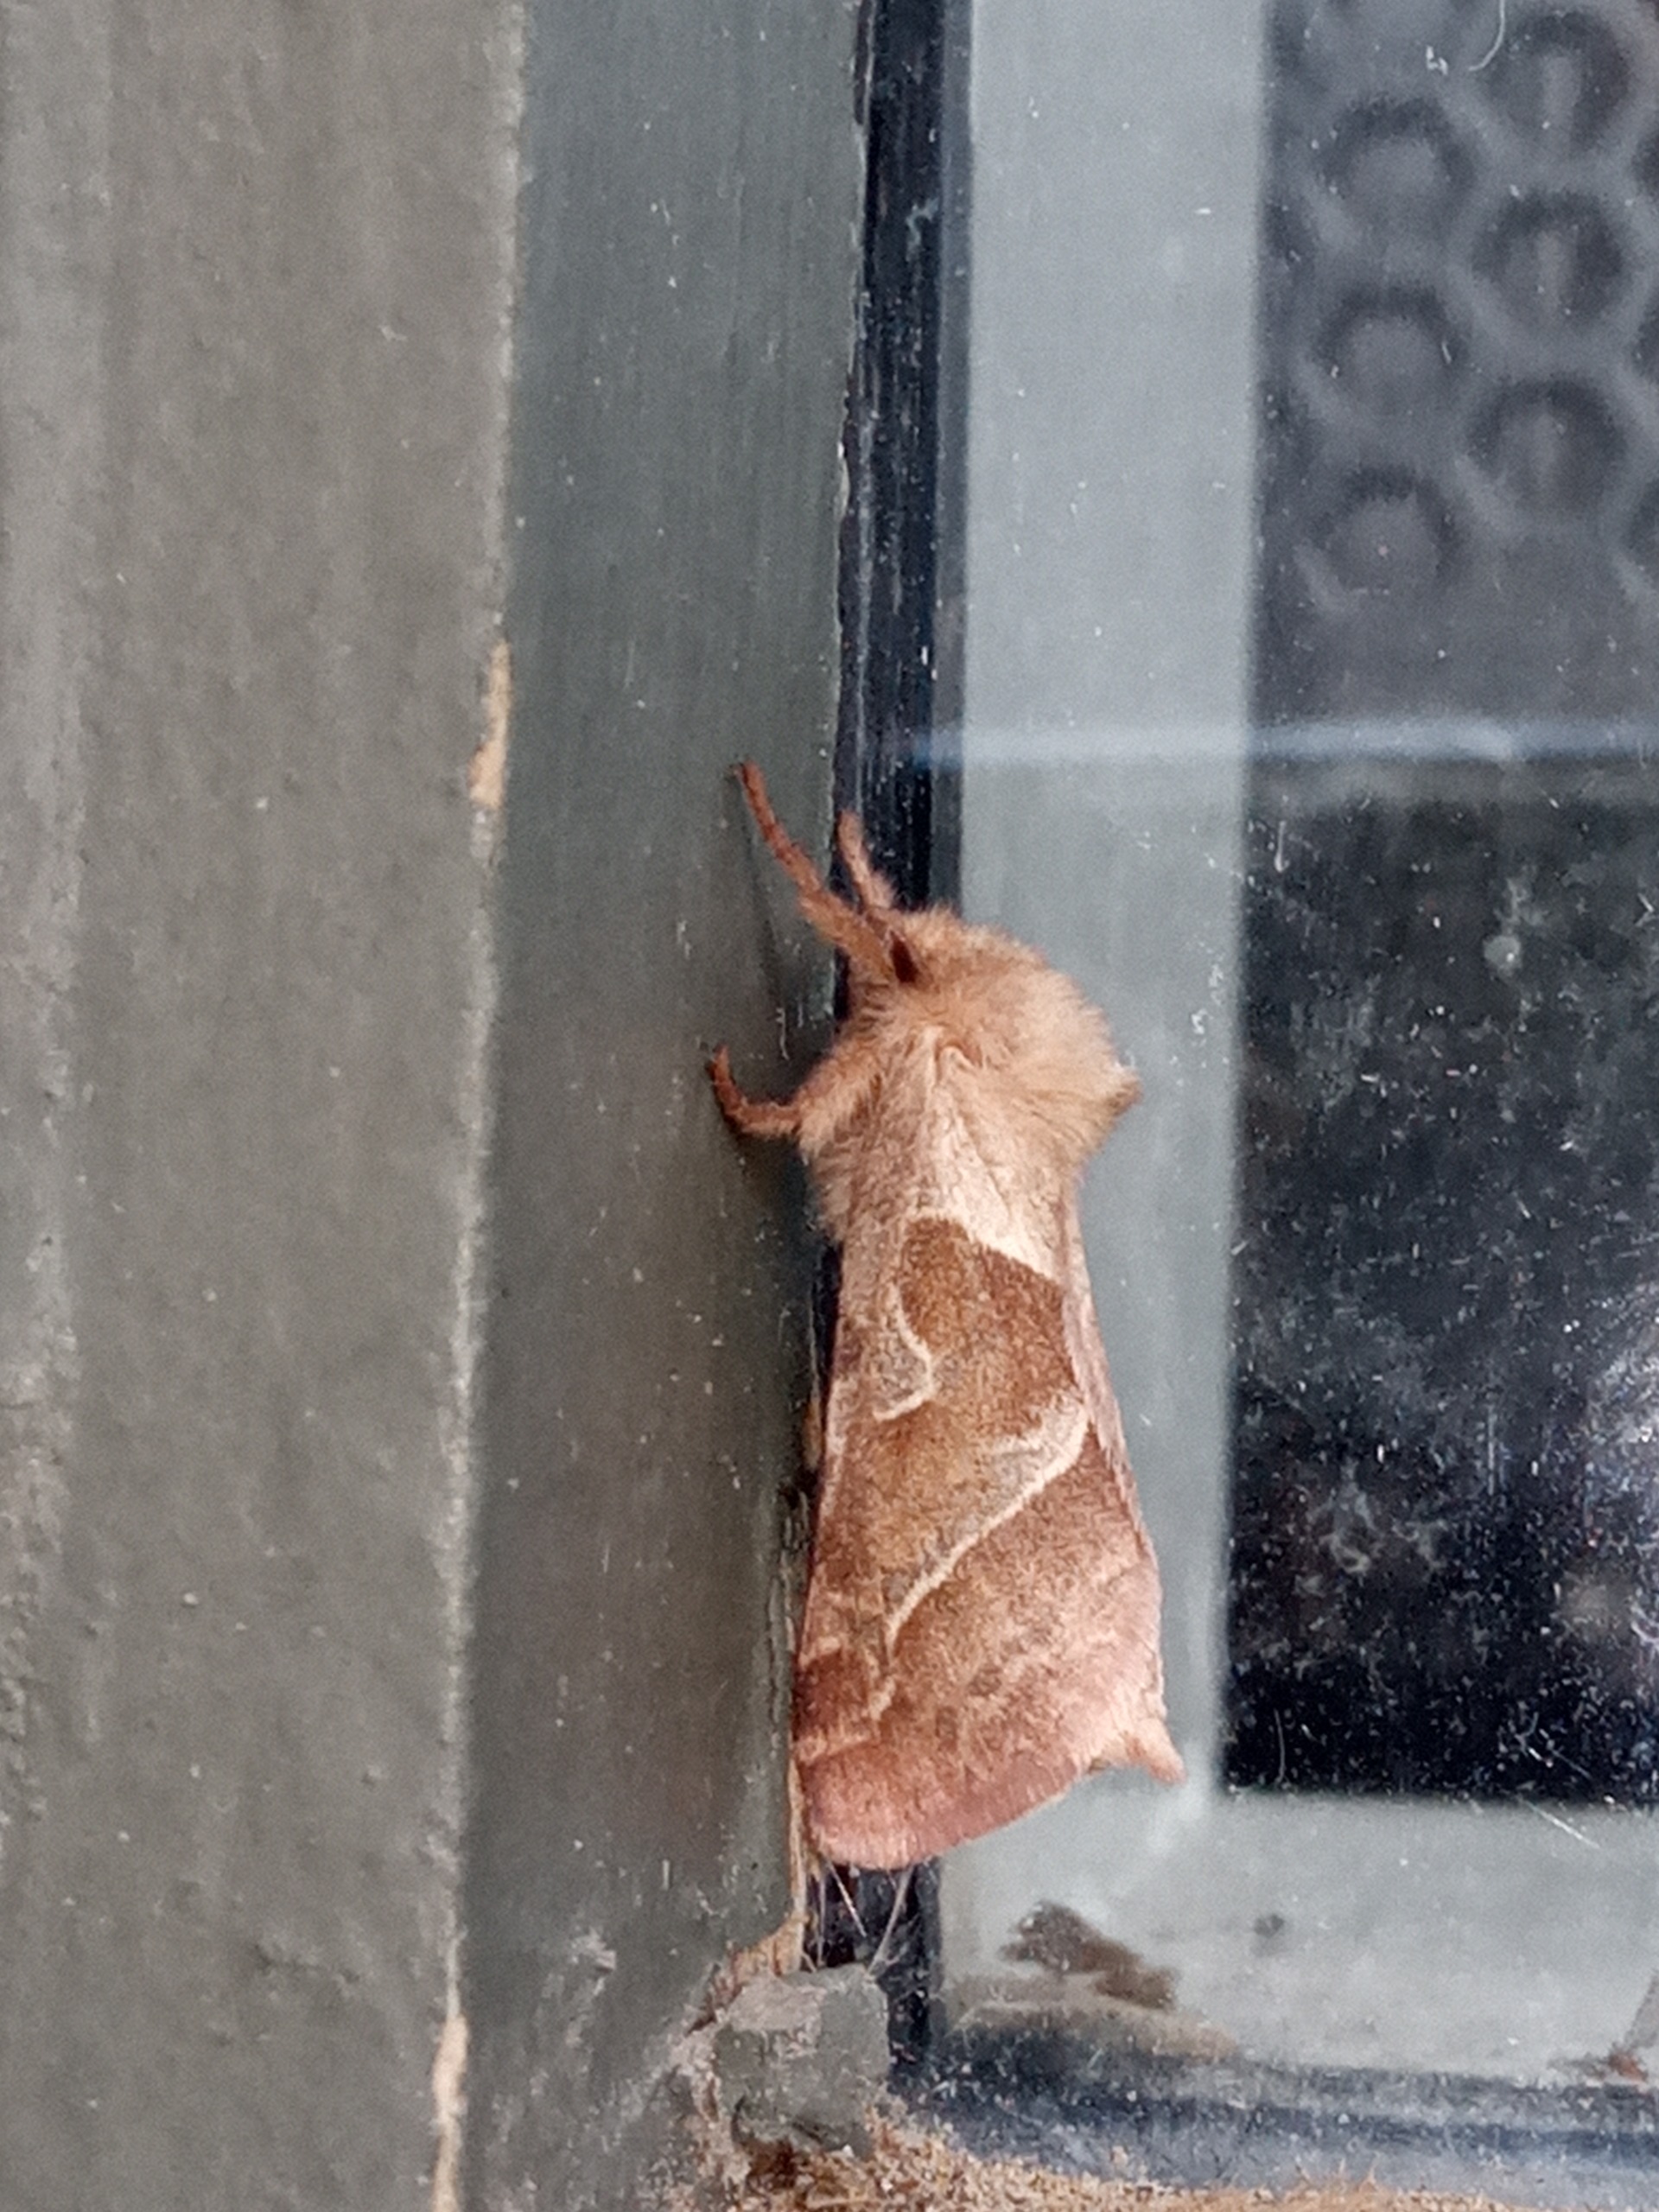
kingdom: Animalia
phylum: Arthropoda
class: Insecta
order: Lepidoptera
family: Hepialidae
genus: Triodia
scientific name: Triodia sylvina
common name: Skræpperodæder
